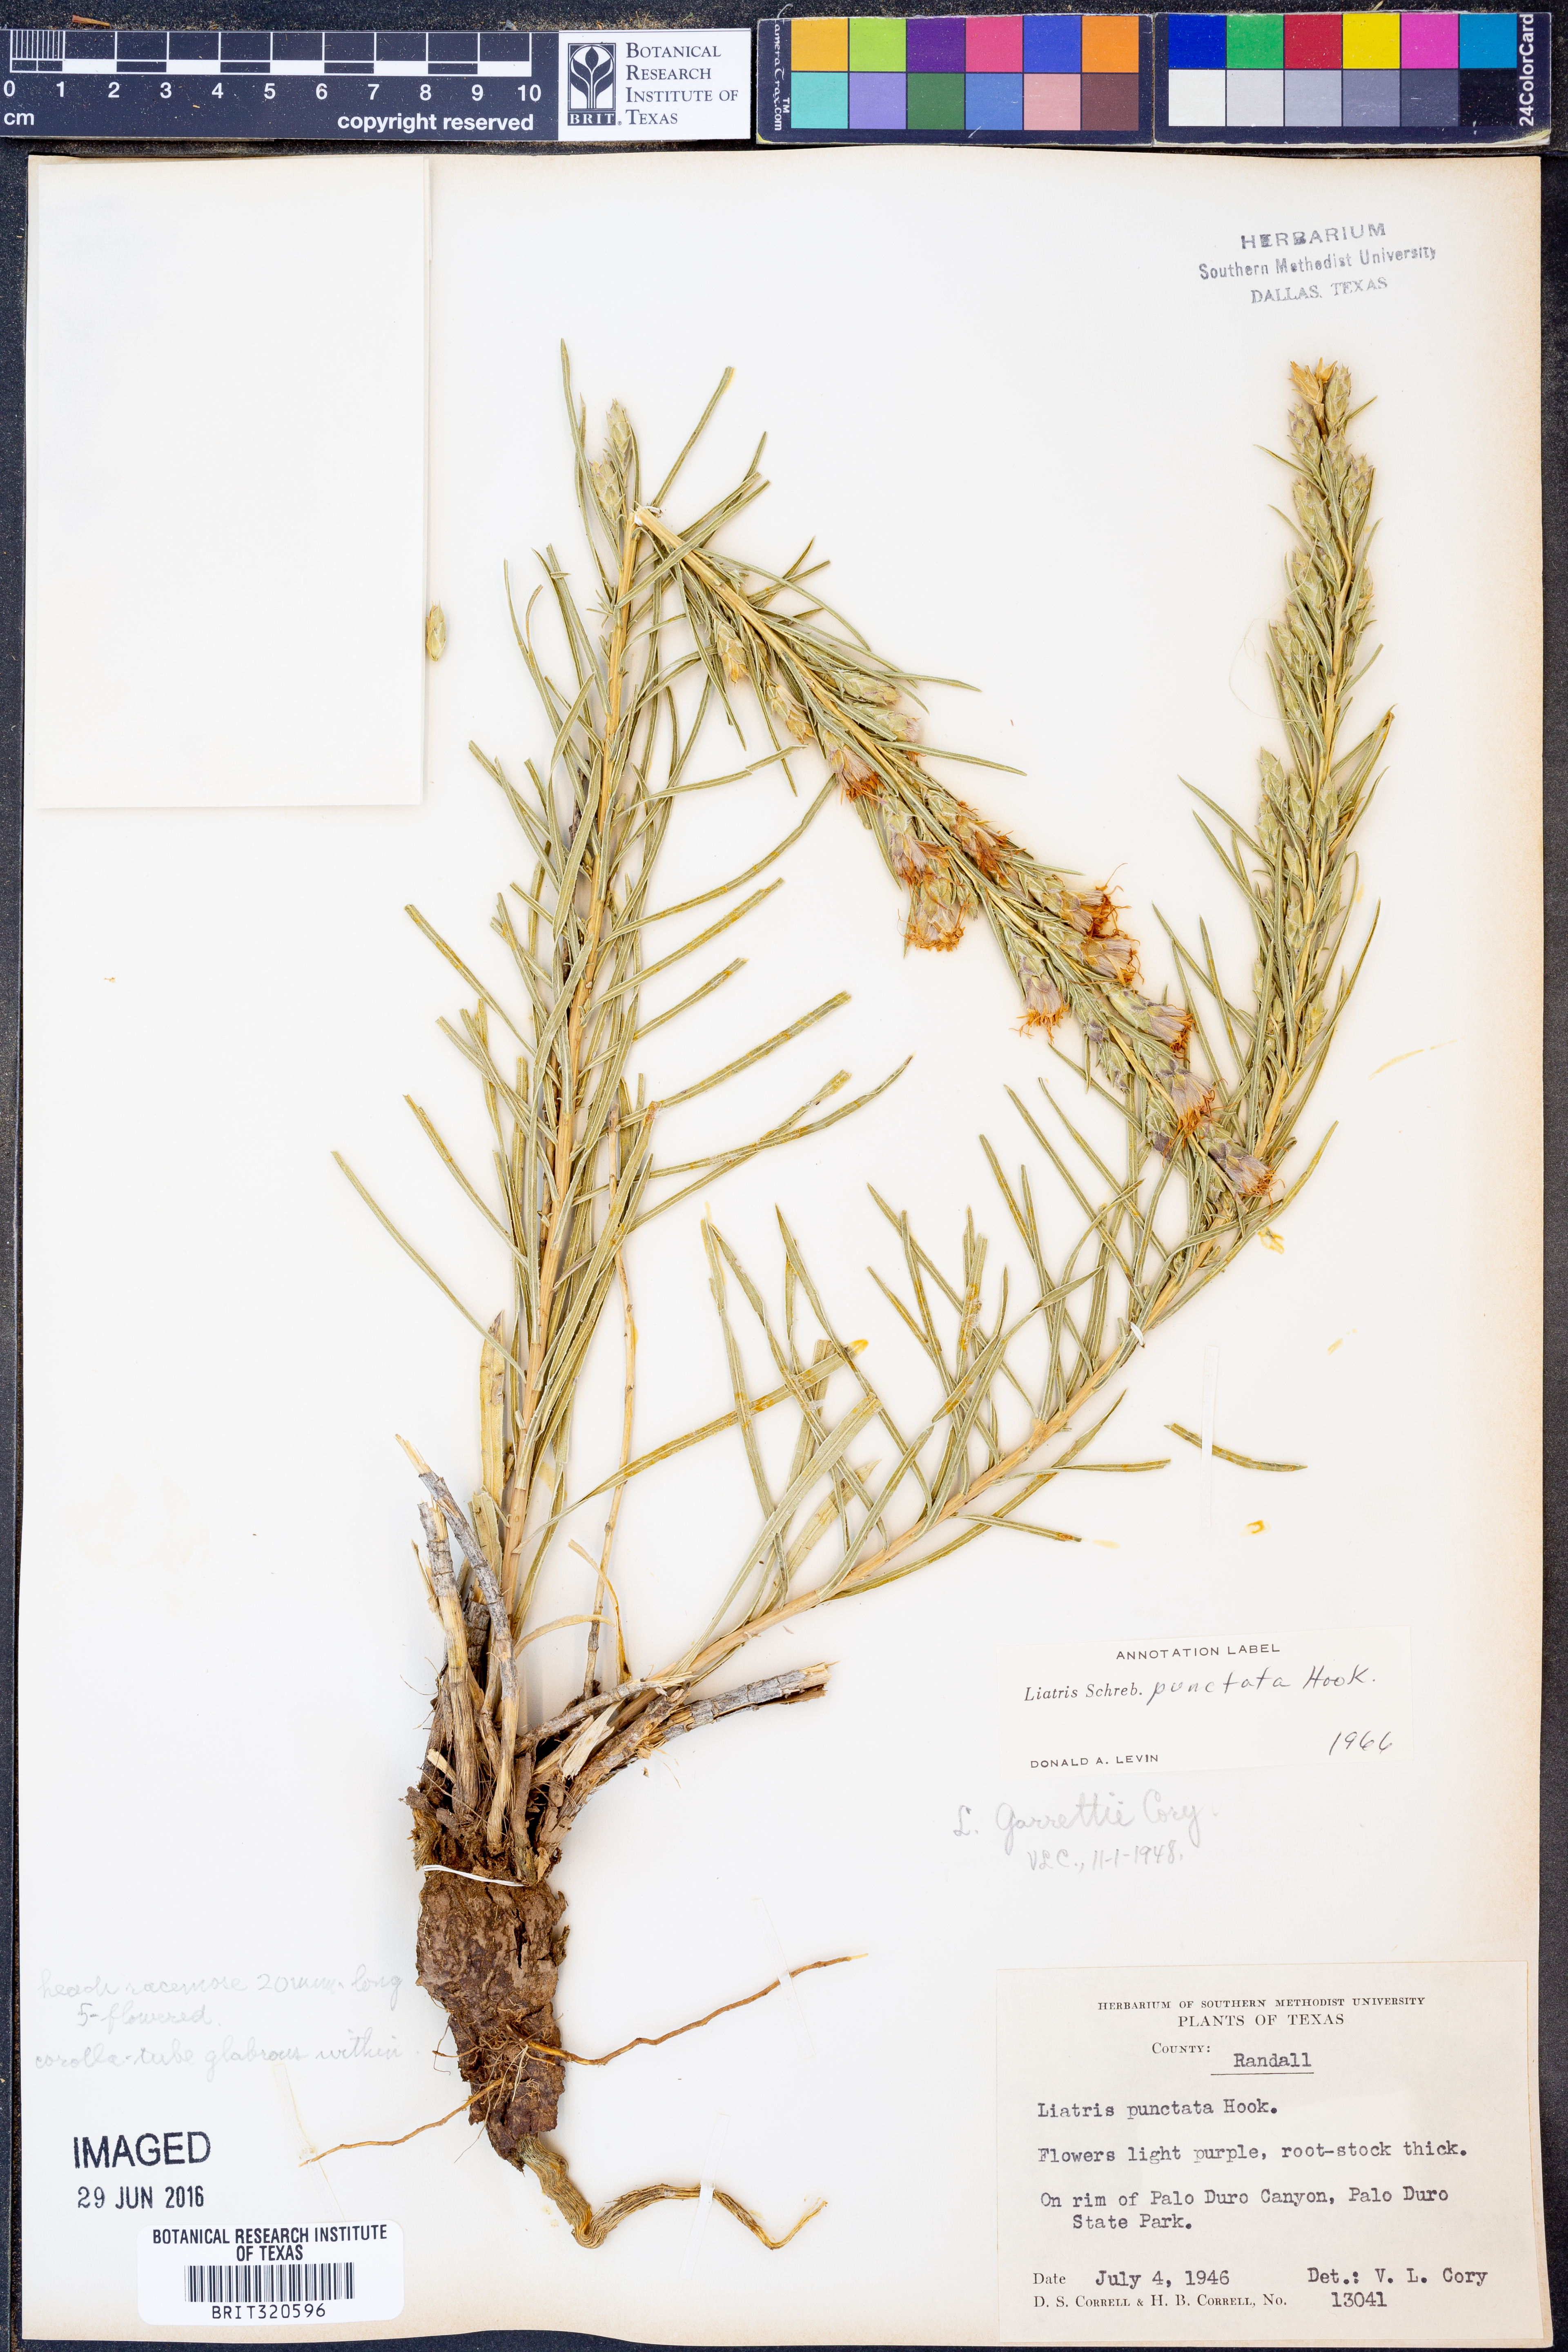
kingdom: Plantae
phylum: Tracheophyta
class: Magnoliopsida
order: Asterales
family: Asteraceae
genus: Liatris
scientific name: Liatris punctata
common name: Dotted gayfeather
